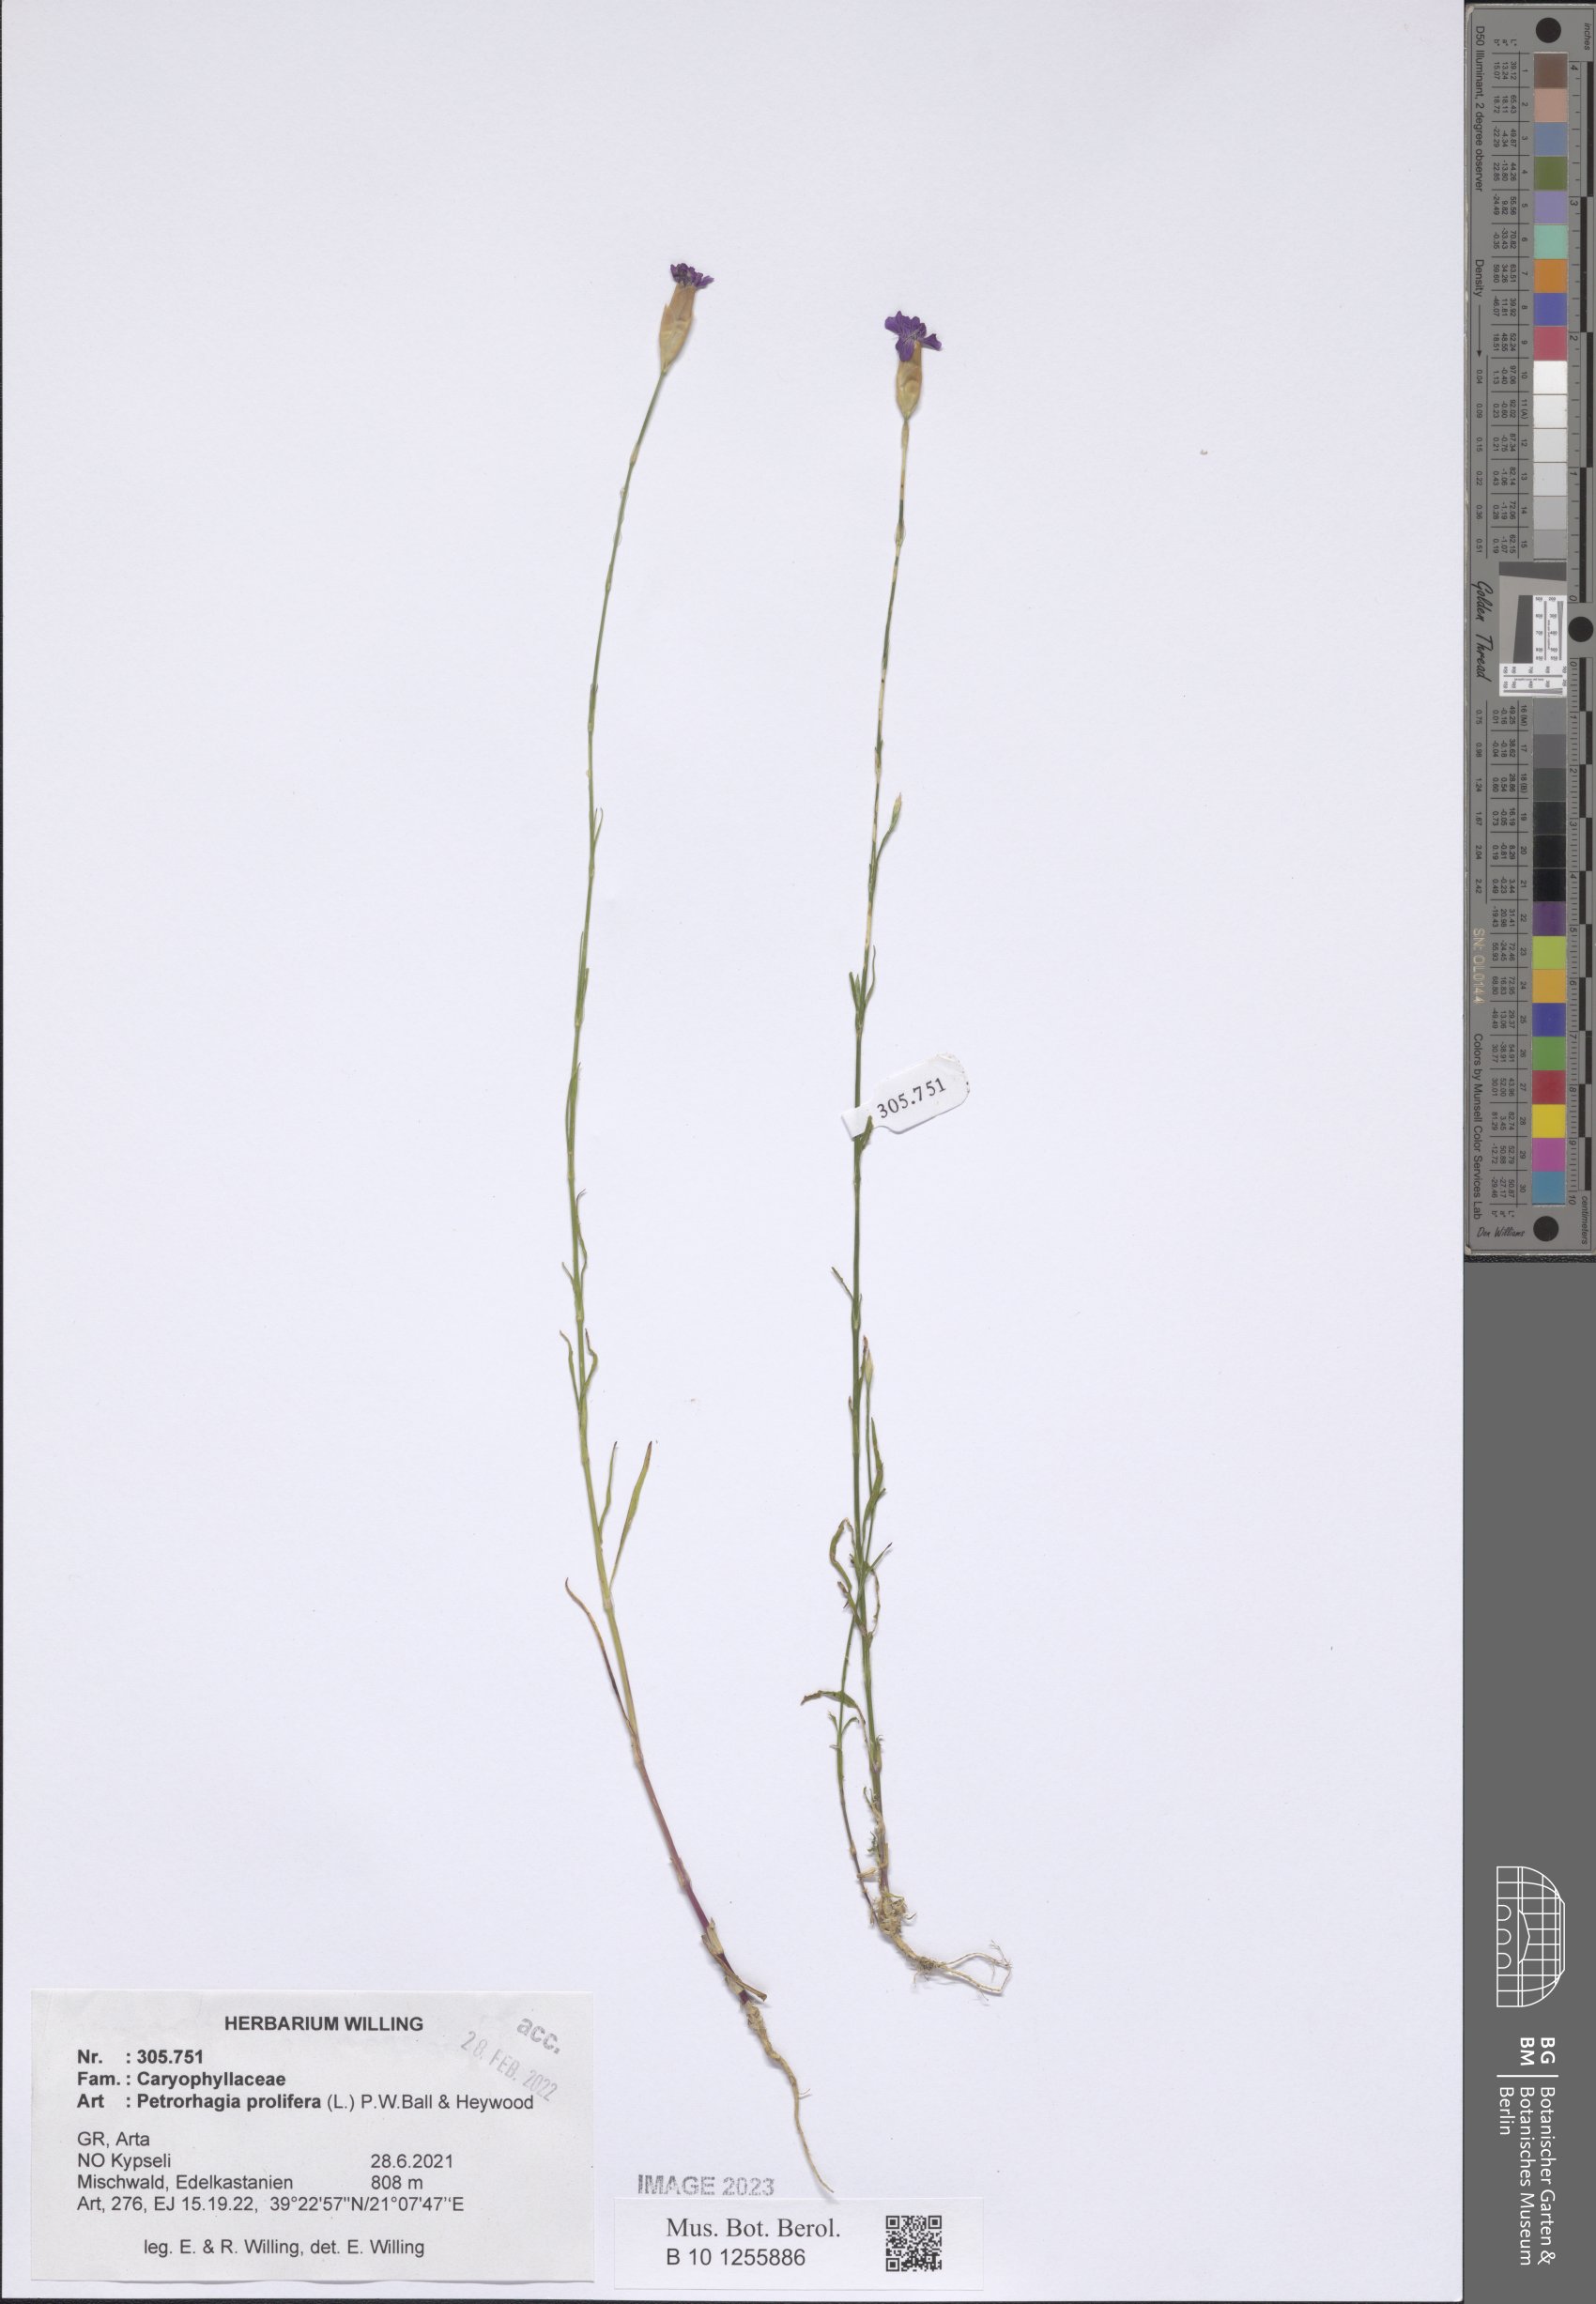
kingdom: Plantae
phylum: Tracheophyta
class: Magnoliopsida
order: Caryophyllales
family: Caryophyllaceae
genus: Petrorhagia
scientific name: Petrorhagia prolifera
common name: Proliferous pink
